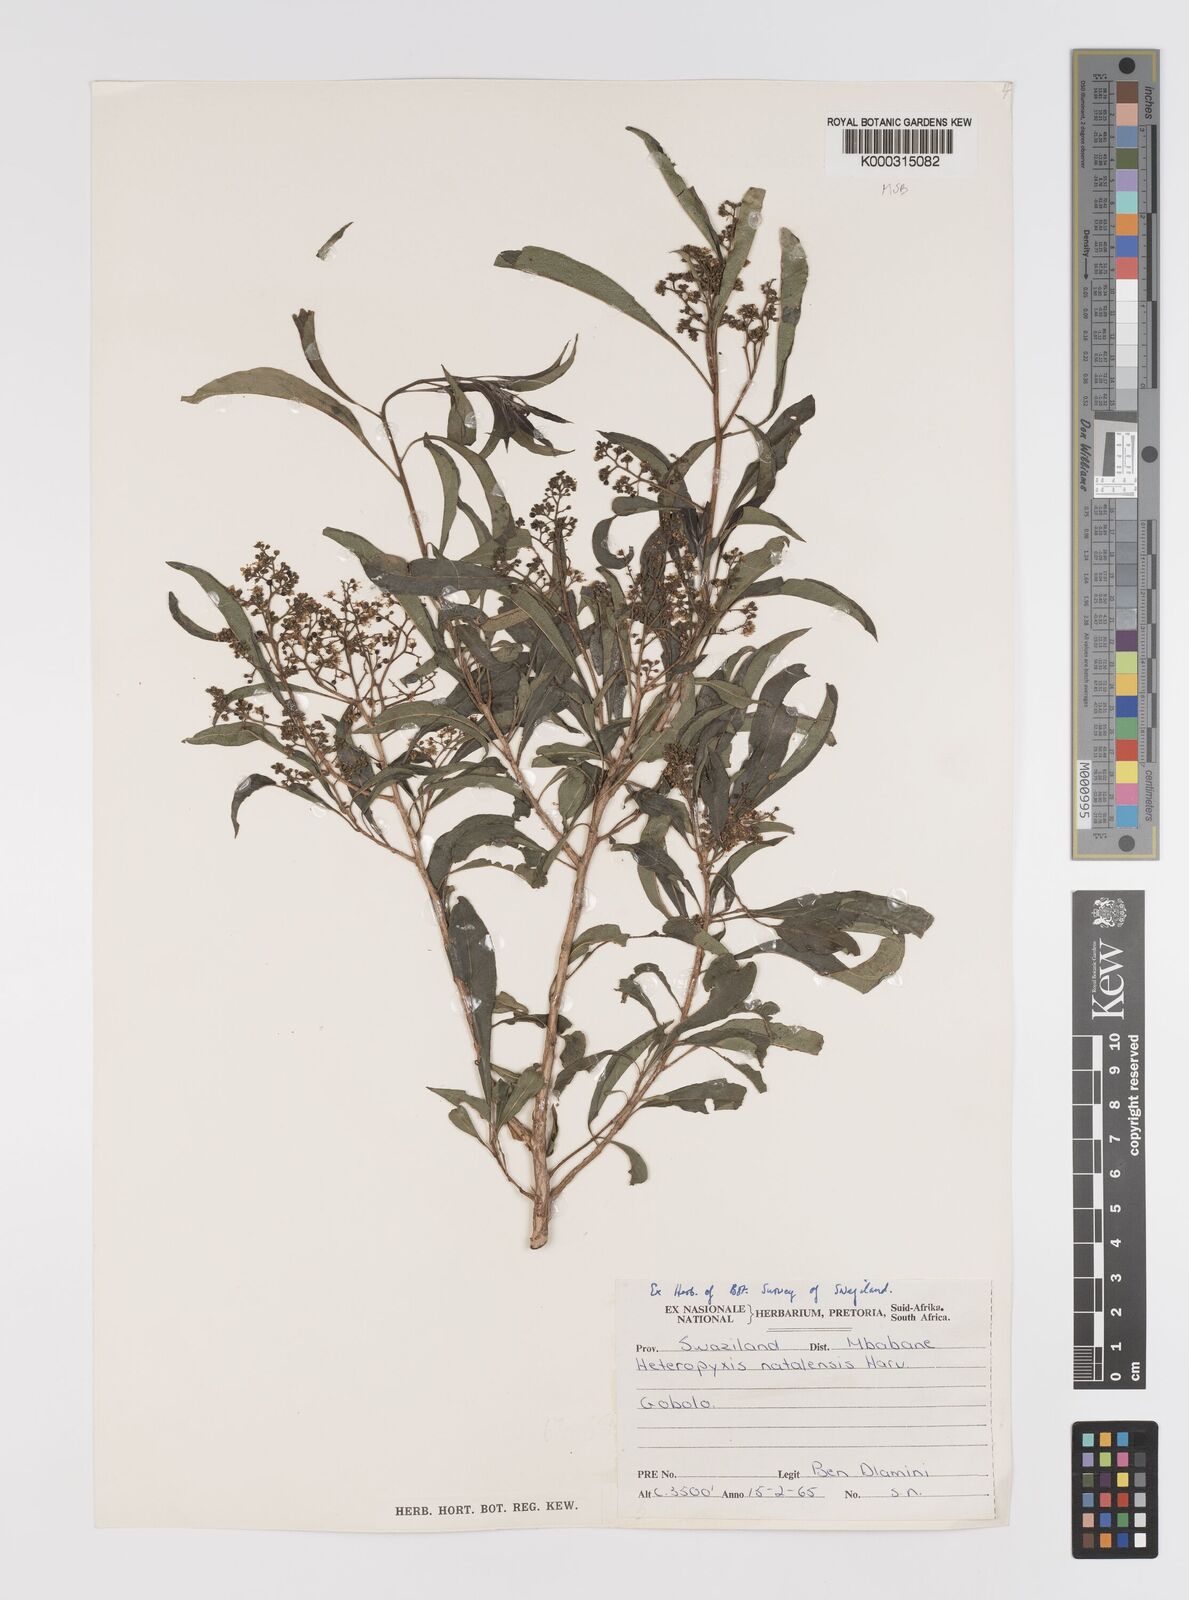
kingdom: Plantae
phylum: Tracheophyta
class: Magnoliopsida
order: Myrtales
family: Myrtaceae
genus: Heteropyxis
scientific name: Heteropyxis natalensis
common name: Lavender tree
